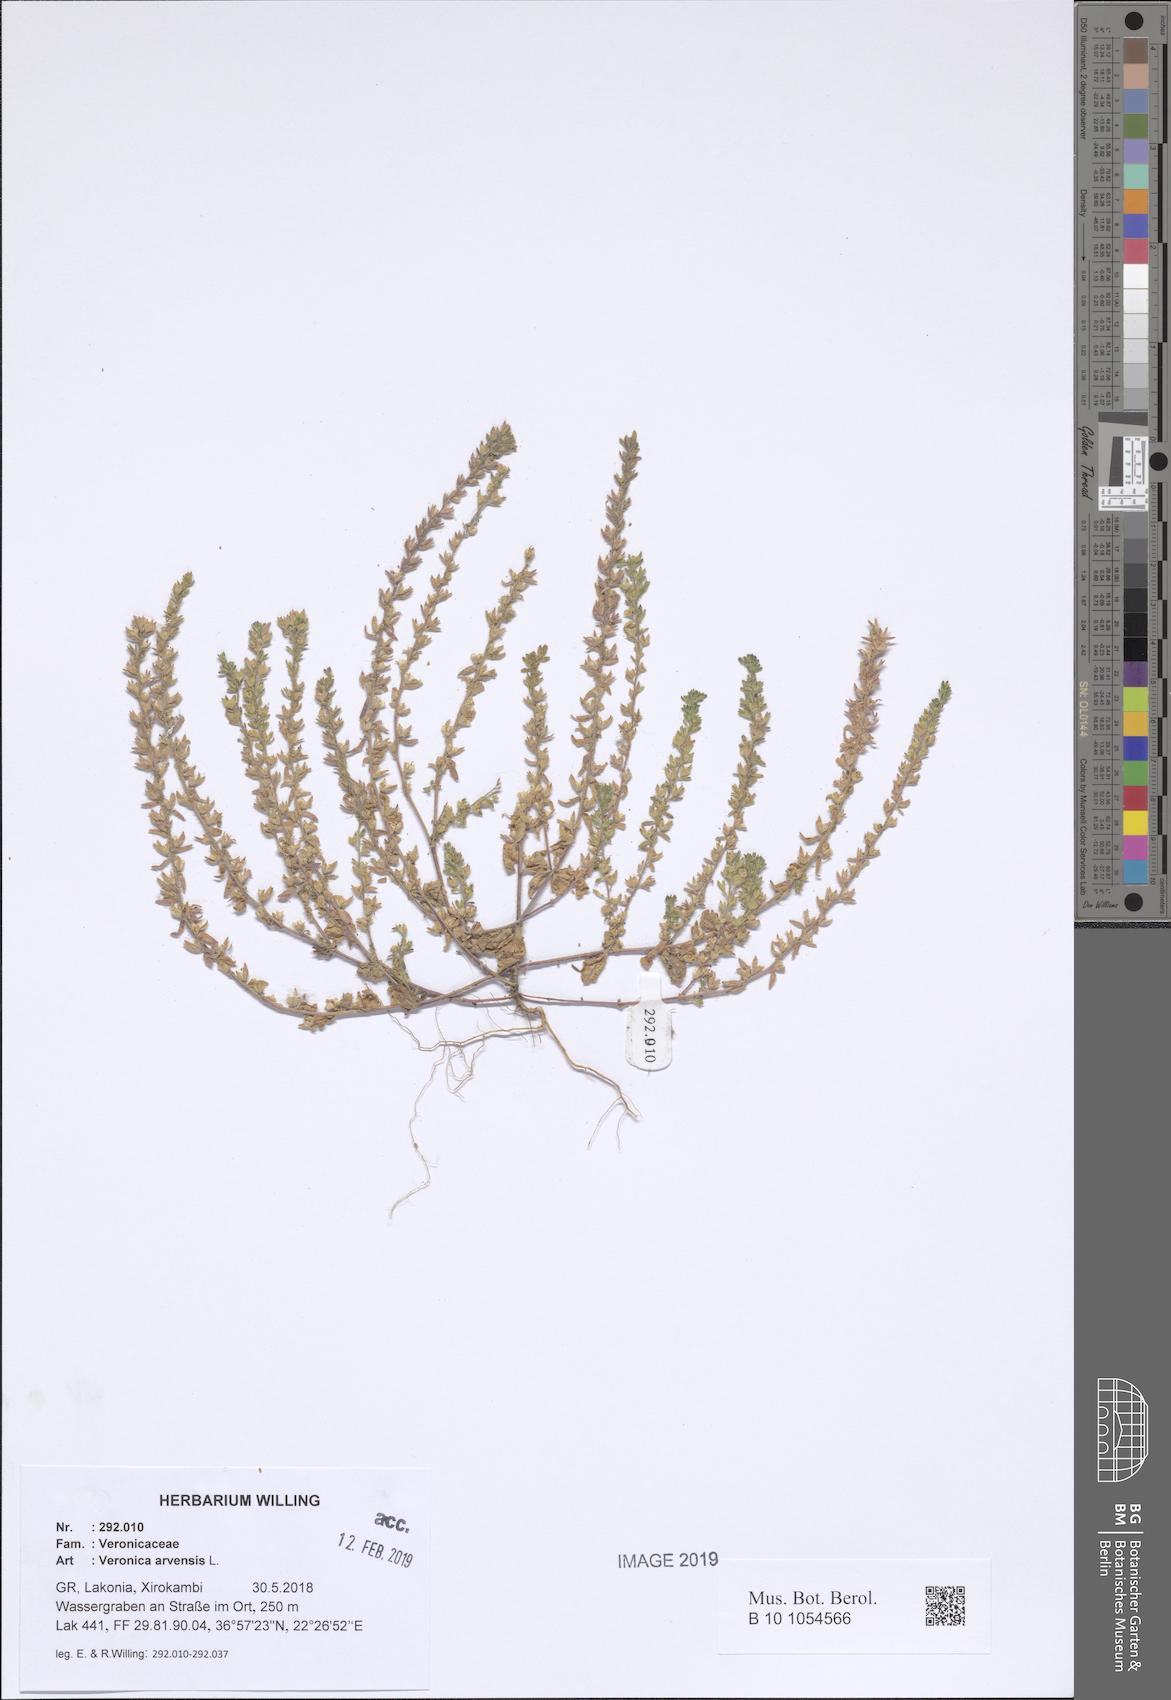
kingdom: Plantae
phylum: Tracheophyta
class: Magnoliopsida
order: Lamiales
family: Plantaginaceae
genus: Veronica
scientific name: Veronica arvensis
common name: Corn speedwell
